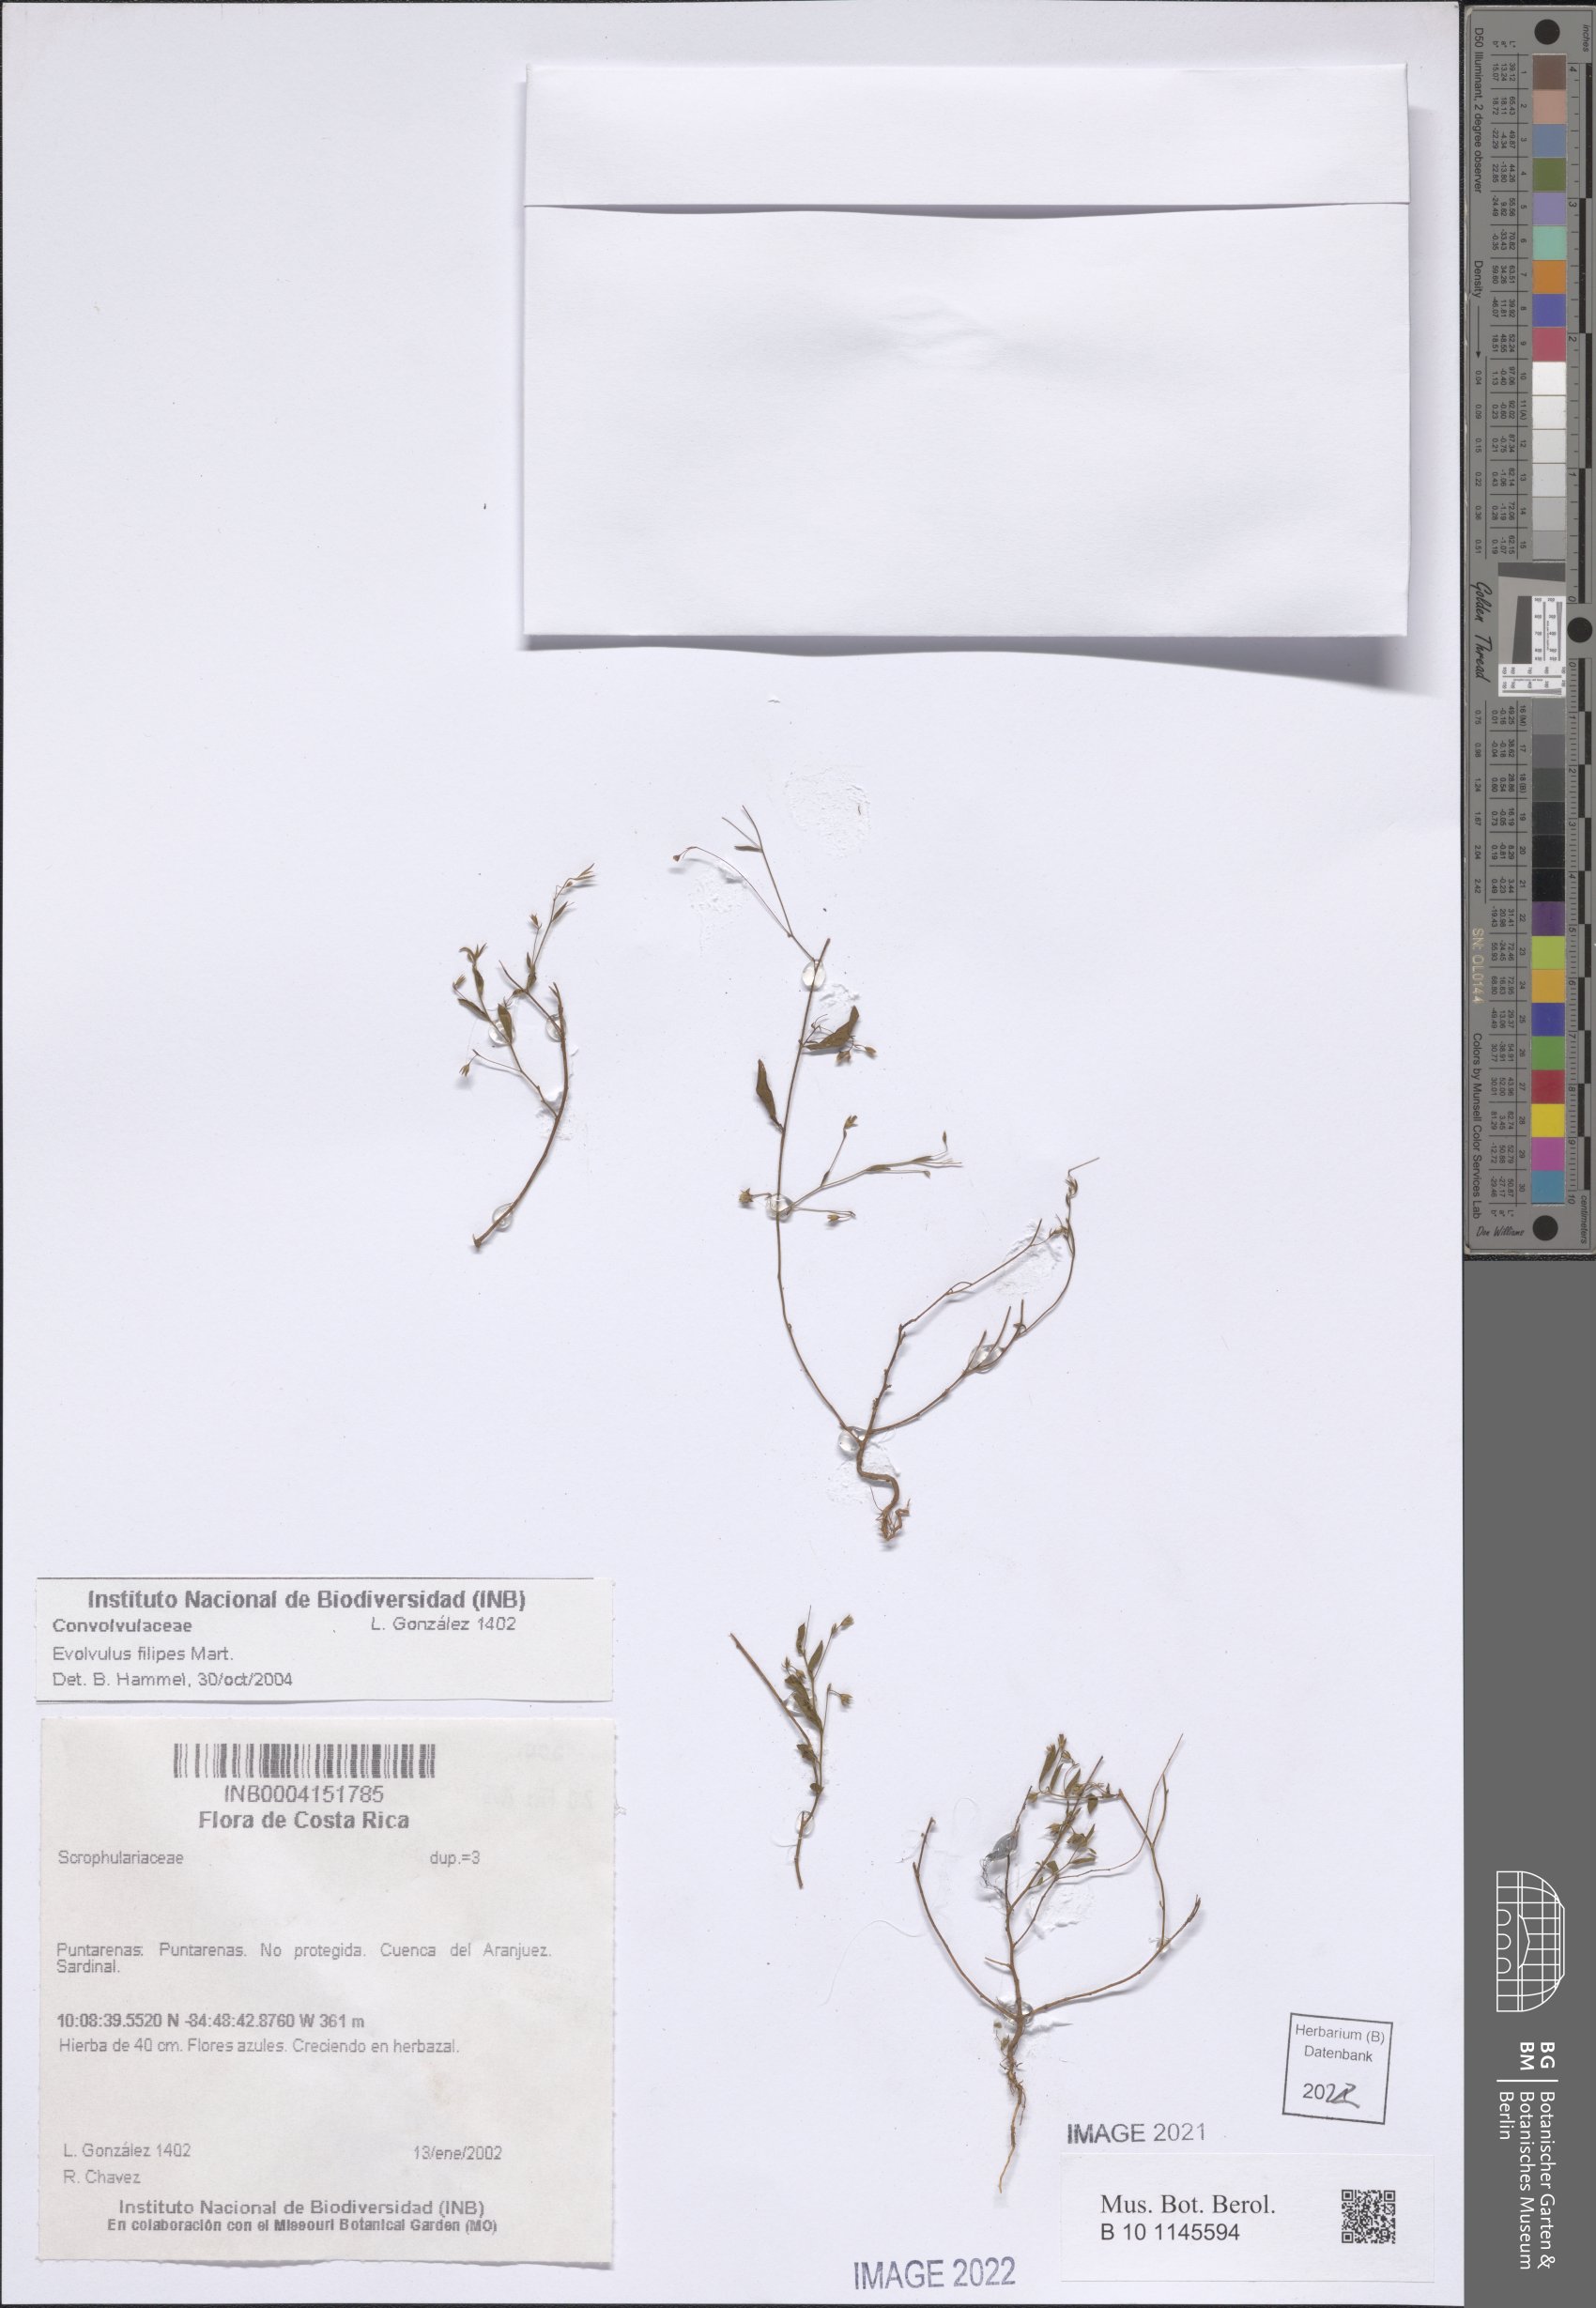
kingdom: Plantae
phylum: Tracheophyta
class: Magnoliopsida
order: Solanales
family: Convolvulaceae
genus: Evolvulus
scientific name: Evolvulus filipes
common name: Maryland dwarf morning-glory
